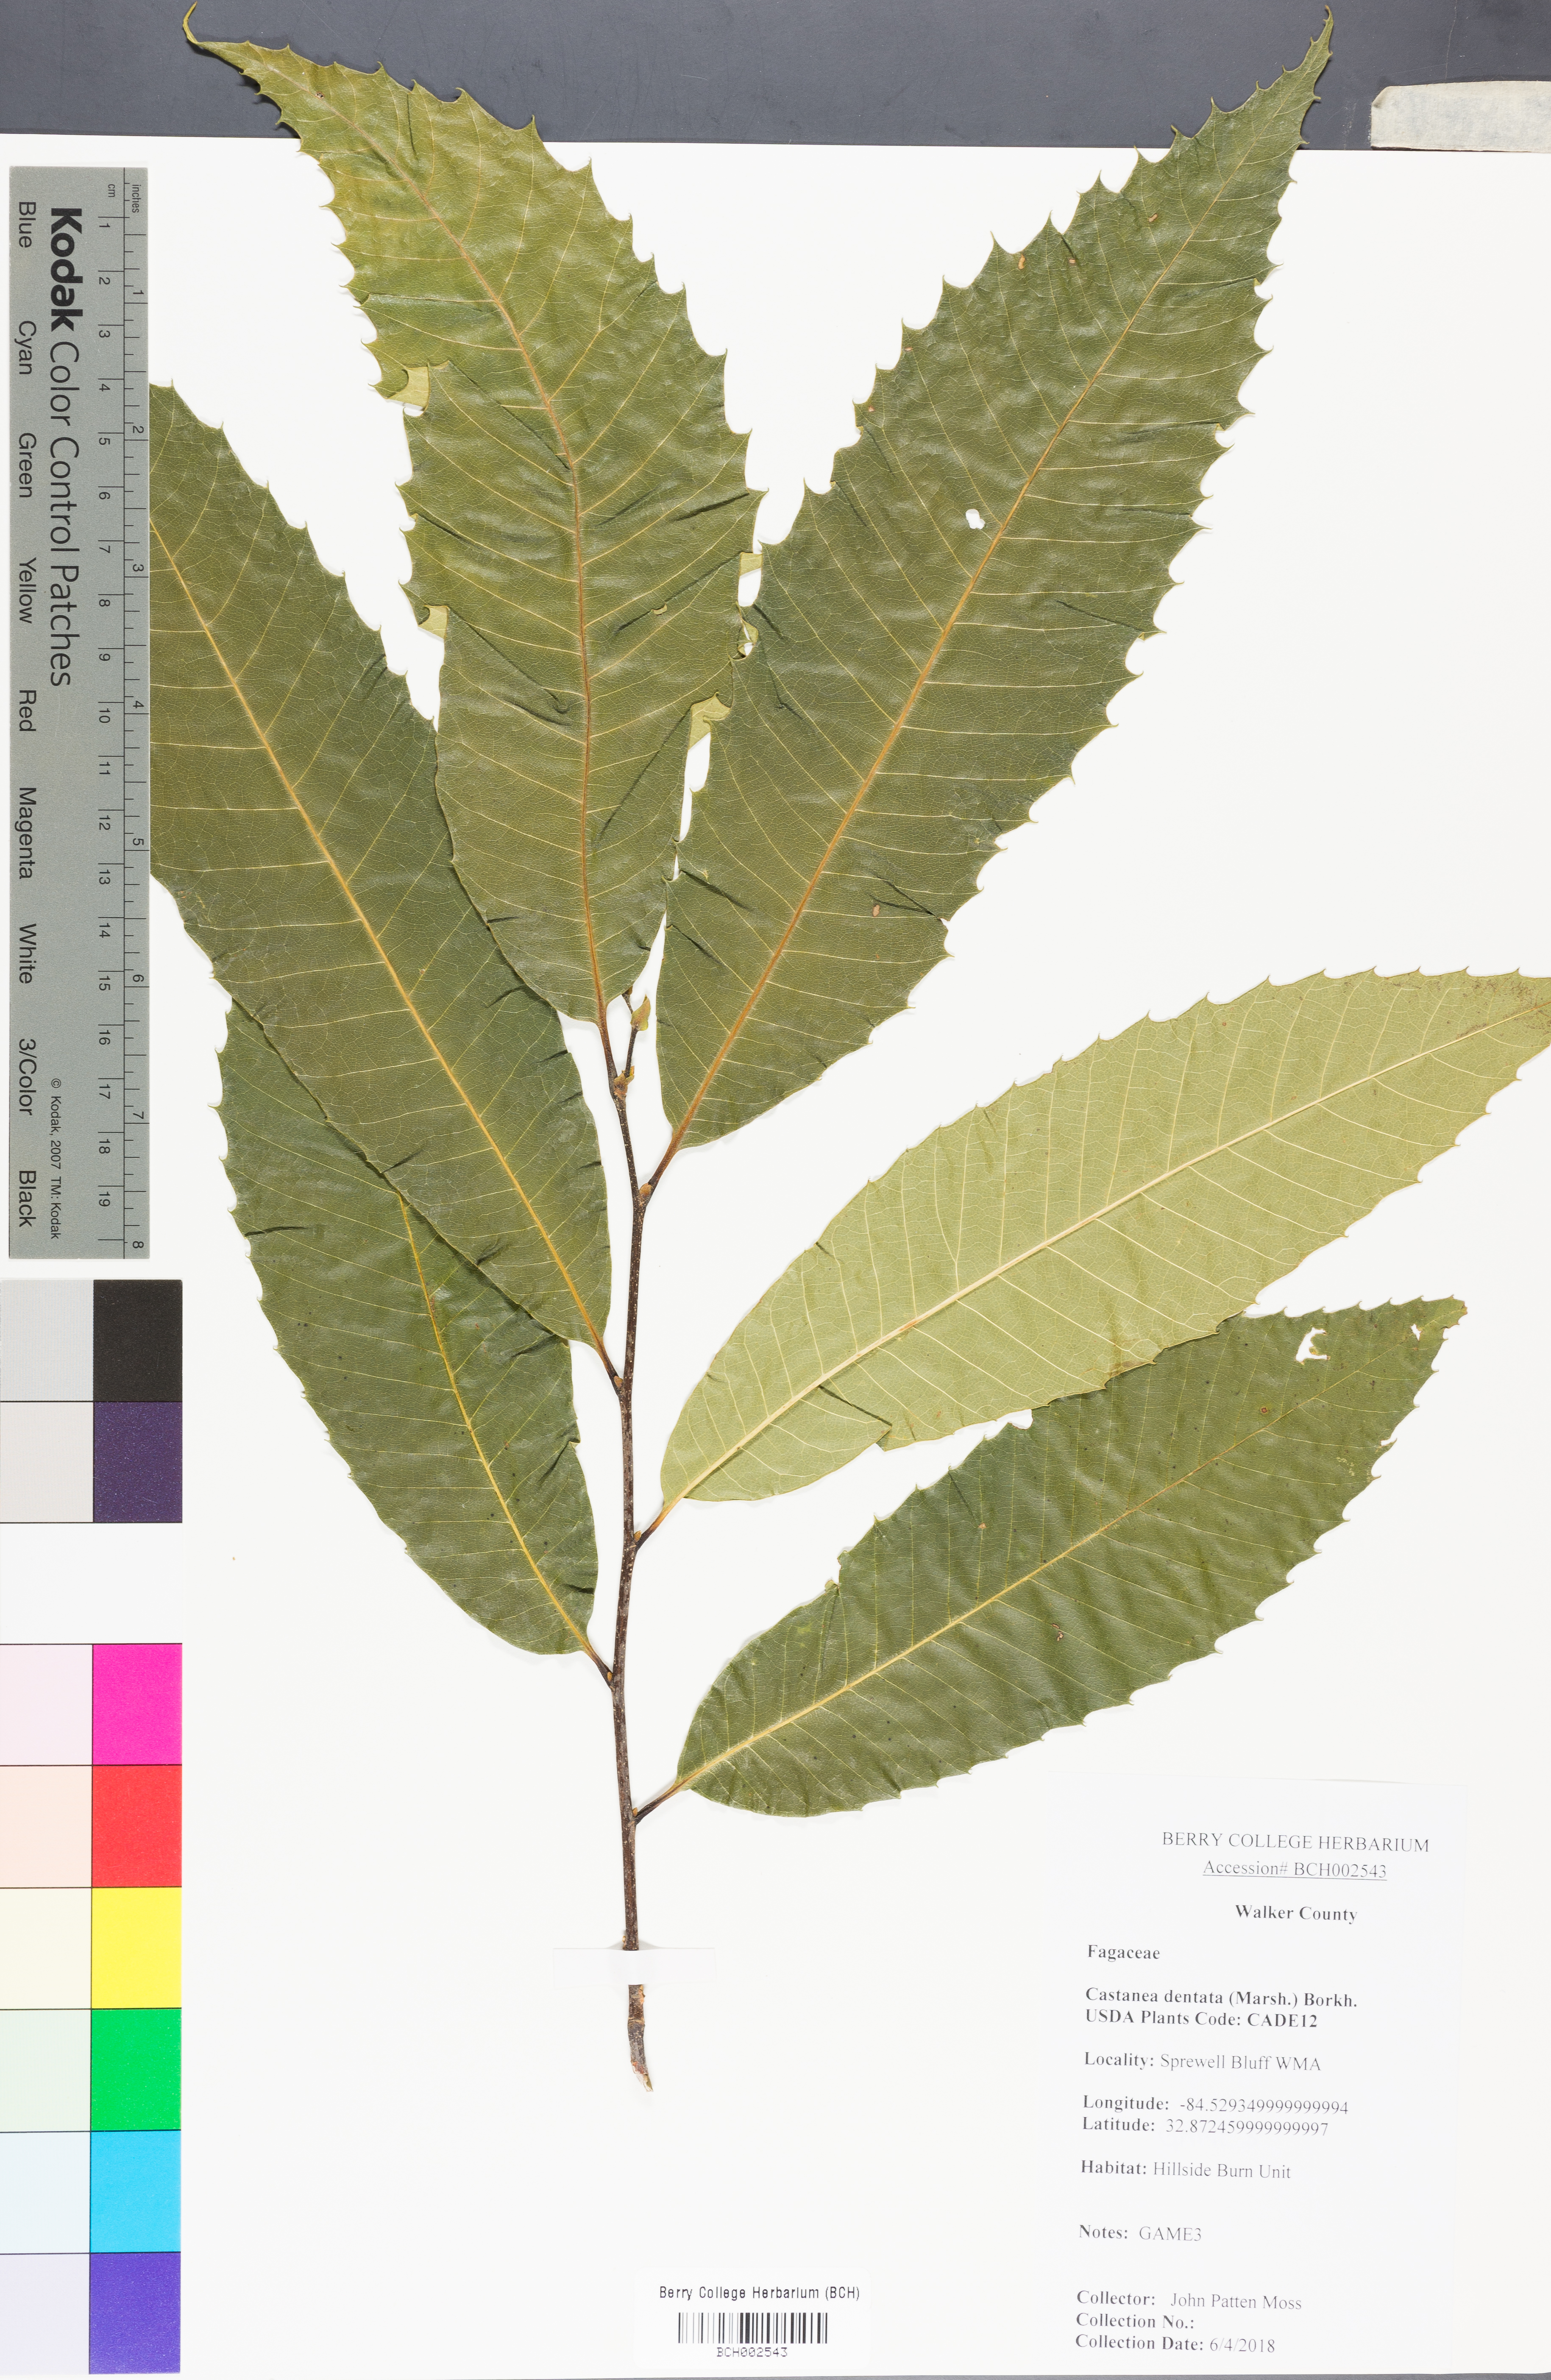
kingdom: Plantae
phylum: Tracheophyta
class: Magnoliopsida
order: Fagales
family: Fagaceae
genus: Castanea
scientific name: Castanea dentata
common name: American chestnut
